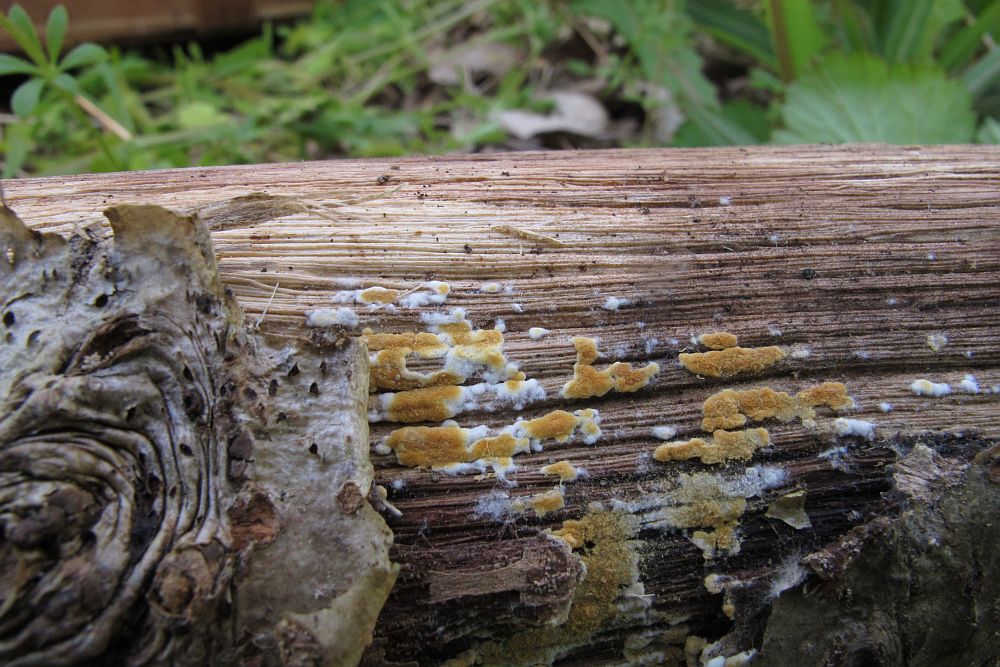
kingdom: Fungi
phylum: Basidiomycota
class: Agaricomycetes
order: Cantharellales
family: Botryobasidiaceae
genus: Botryobasidium
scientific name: Botryobasidium aureum
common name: gylden spindhinde
